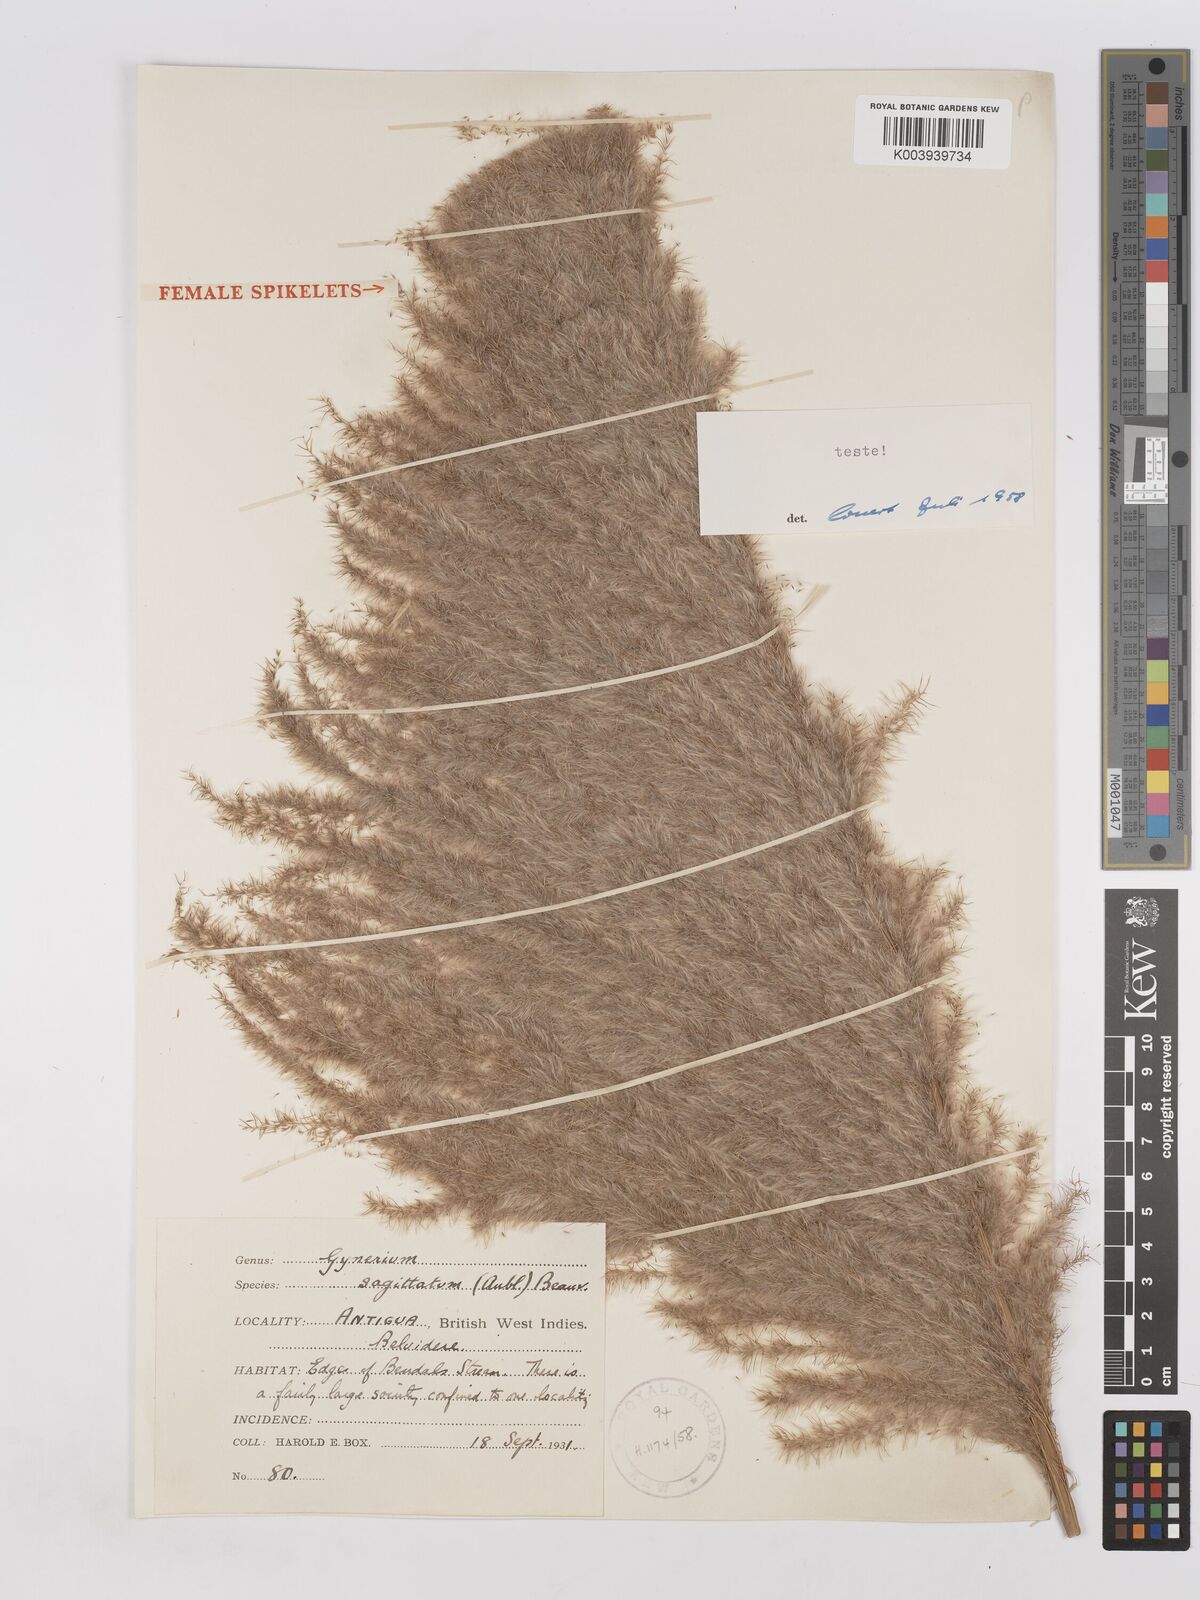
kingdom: Plantae
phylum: Tracheophyta
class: Liliopsida
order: Poales
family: Poaceae
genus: Gynerium
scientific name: Gynerium sagittatum
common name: Wild cane
